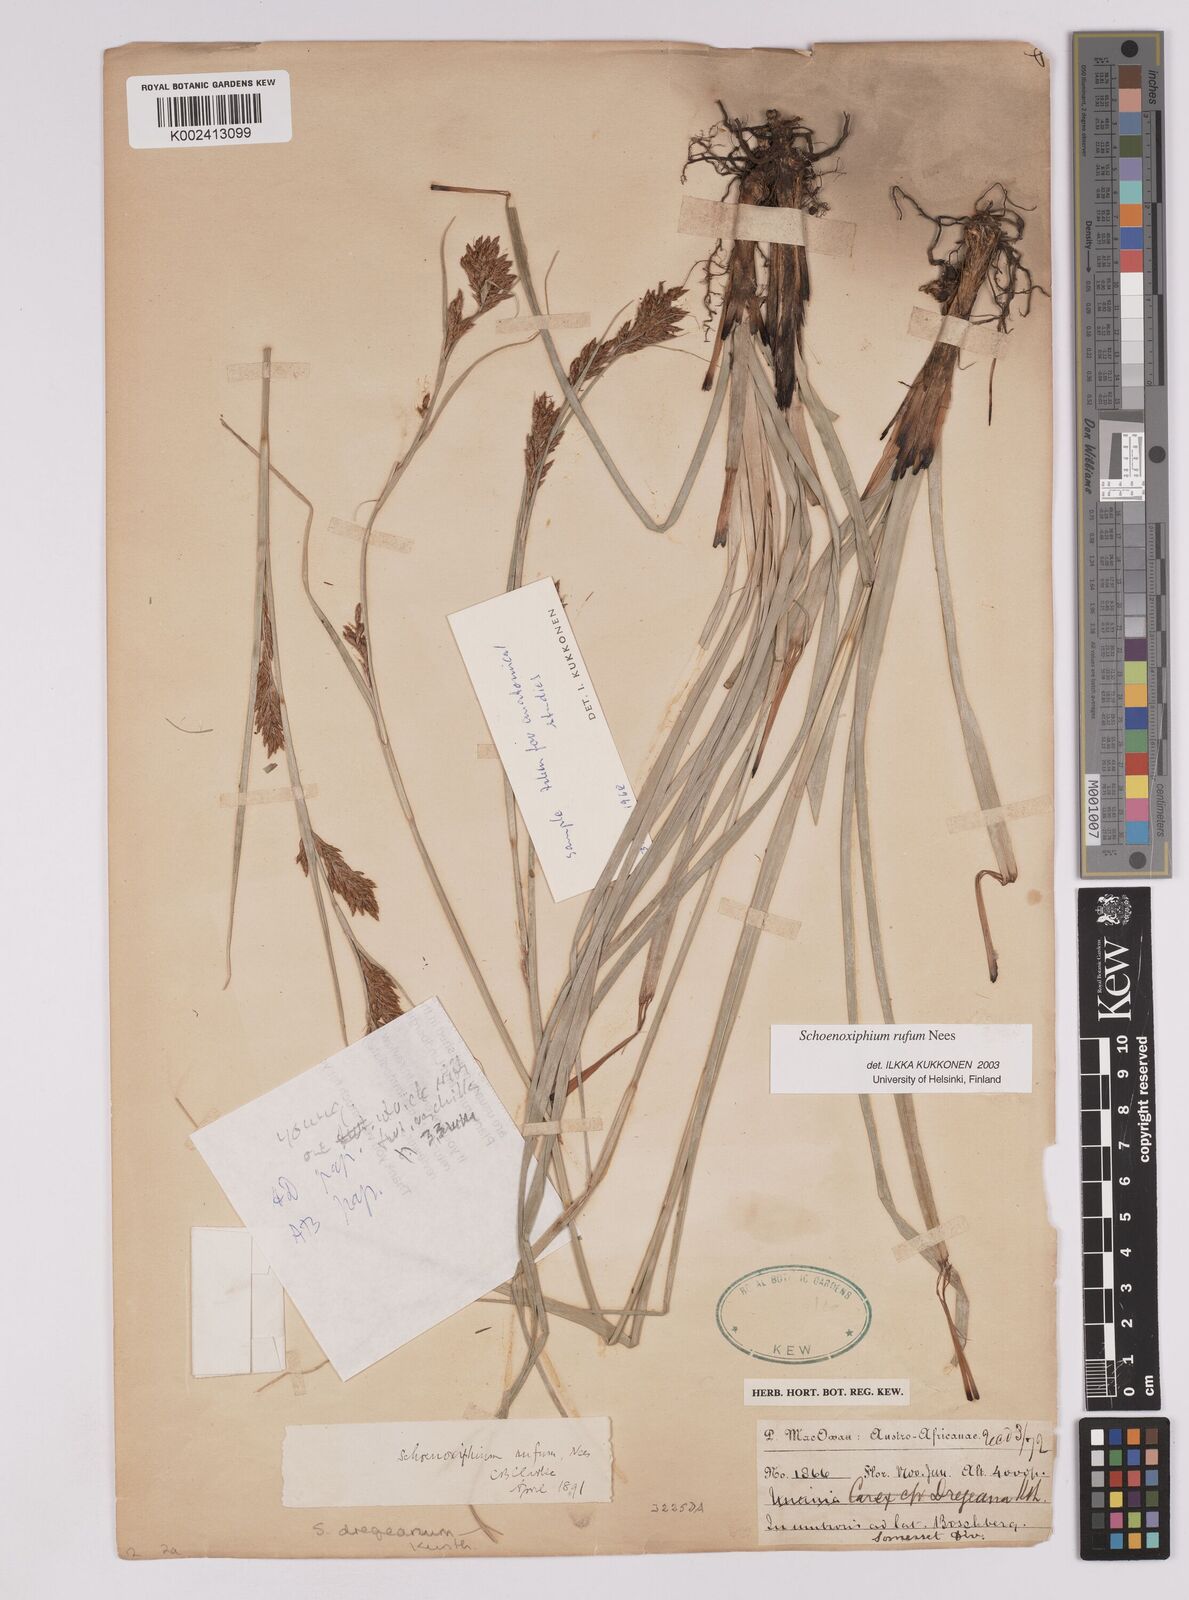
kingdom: Plantae
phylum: Tracheophyta
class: Liliopsida
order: Poales
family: Cyperaceae
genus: Carex
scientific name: Carex ludwigii
